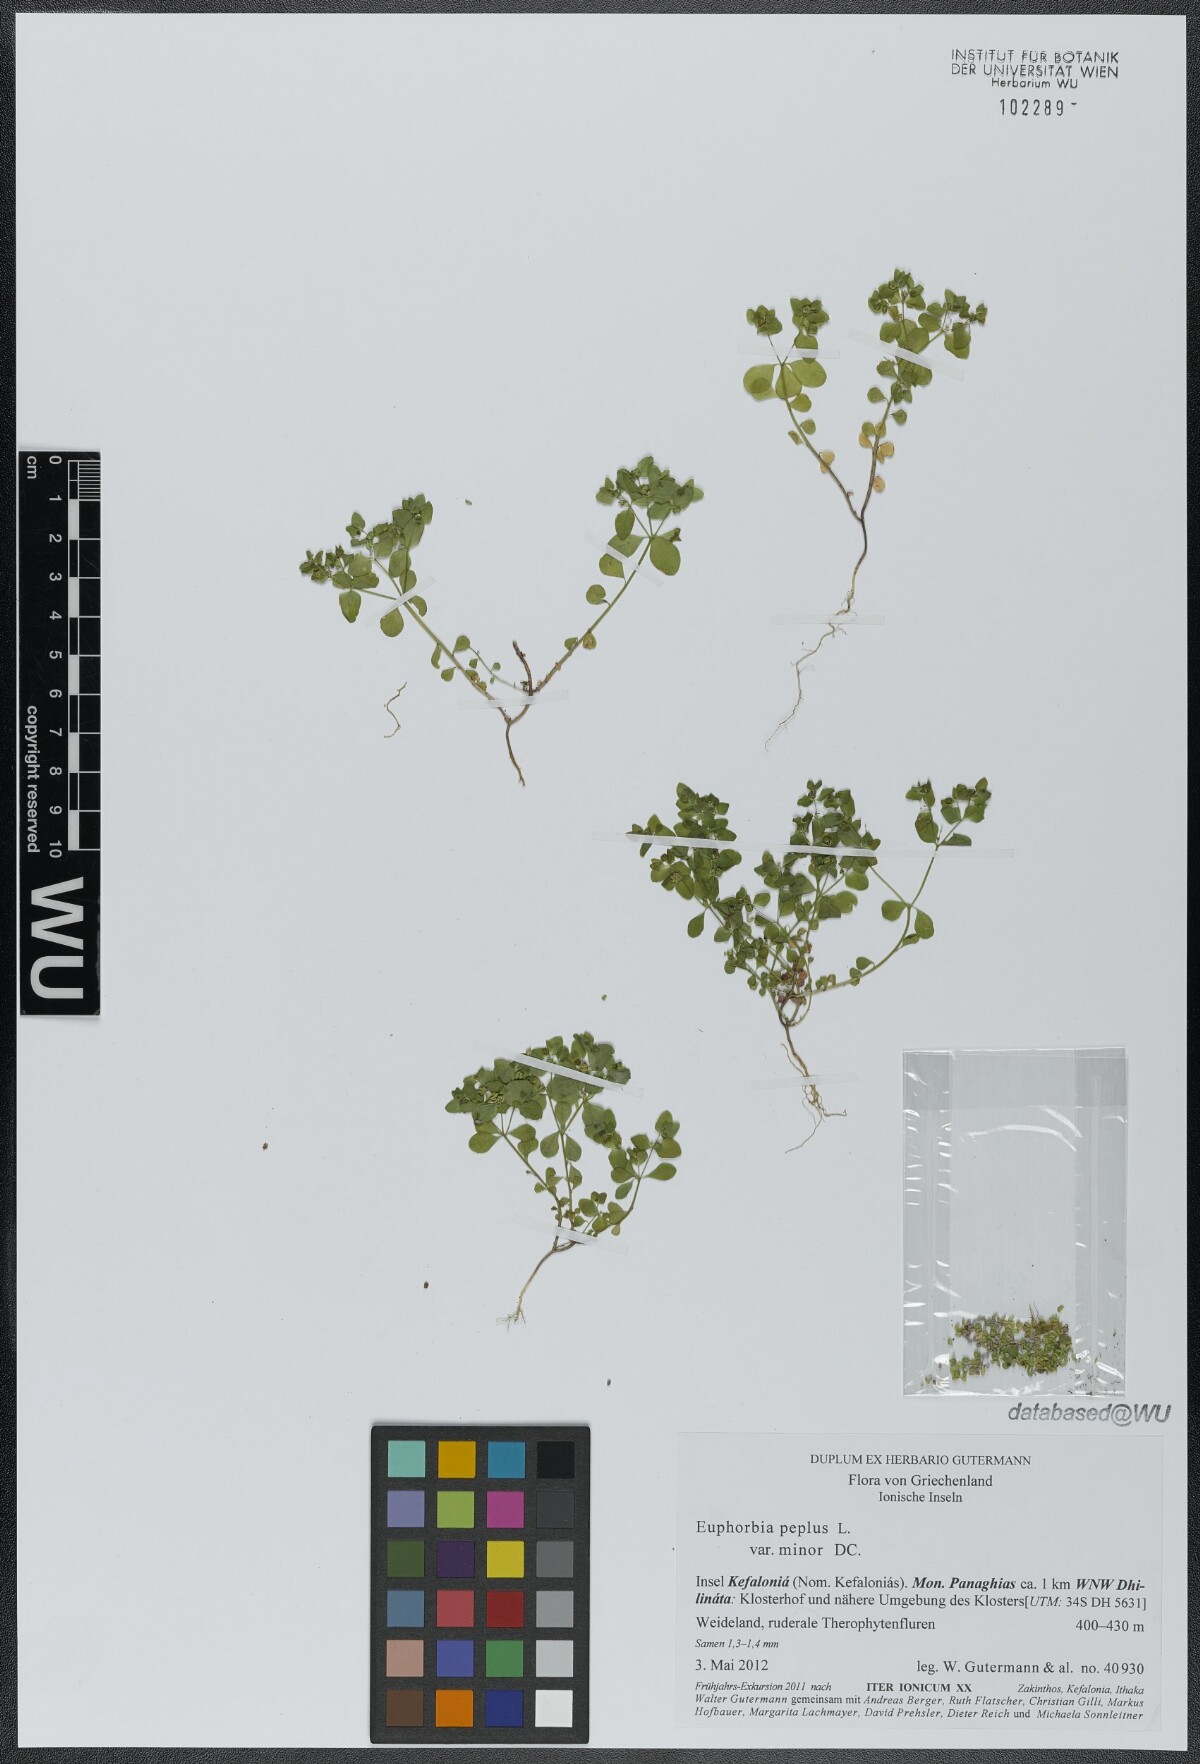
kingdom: Plantae
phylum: Tracheophyta
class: Magnoliopsida
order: Malpighiales
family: Euphorbiaceae
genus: Euphorbia
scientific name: Euphorbia peplus
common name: Petty spurge
